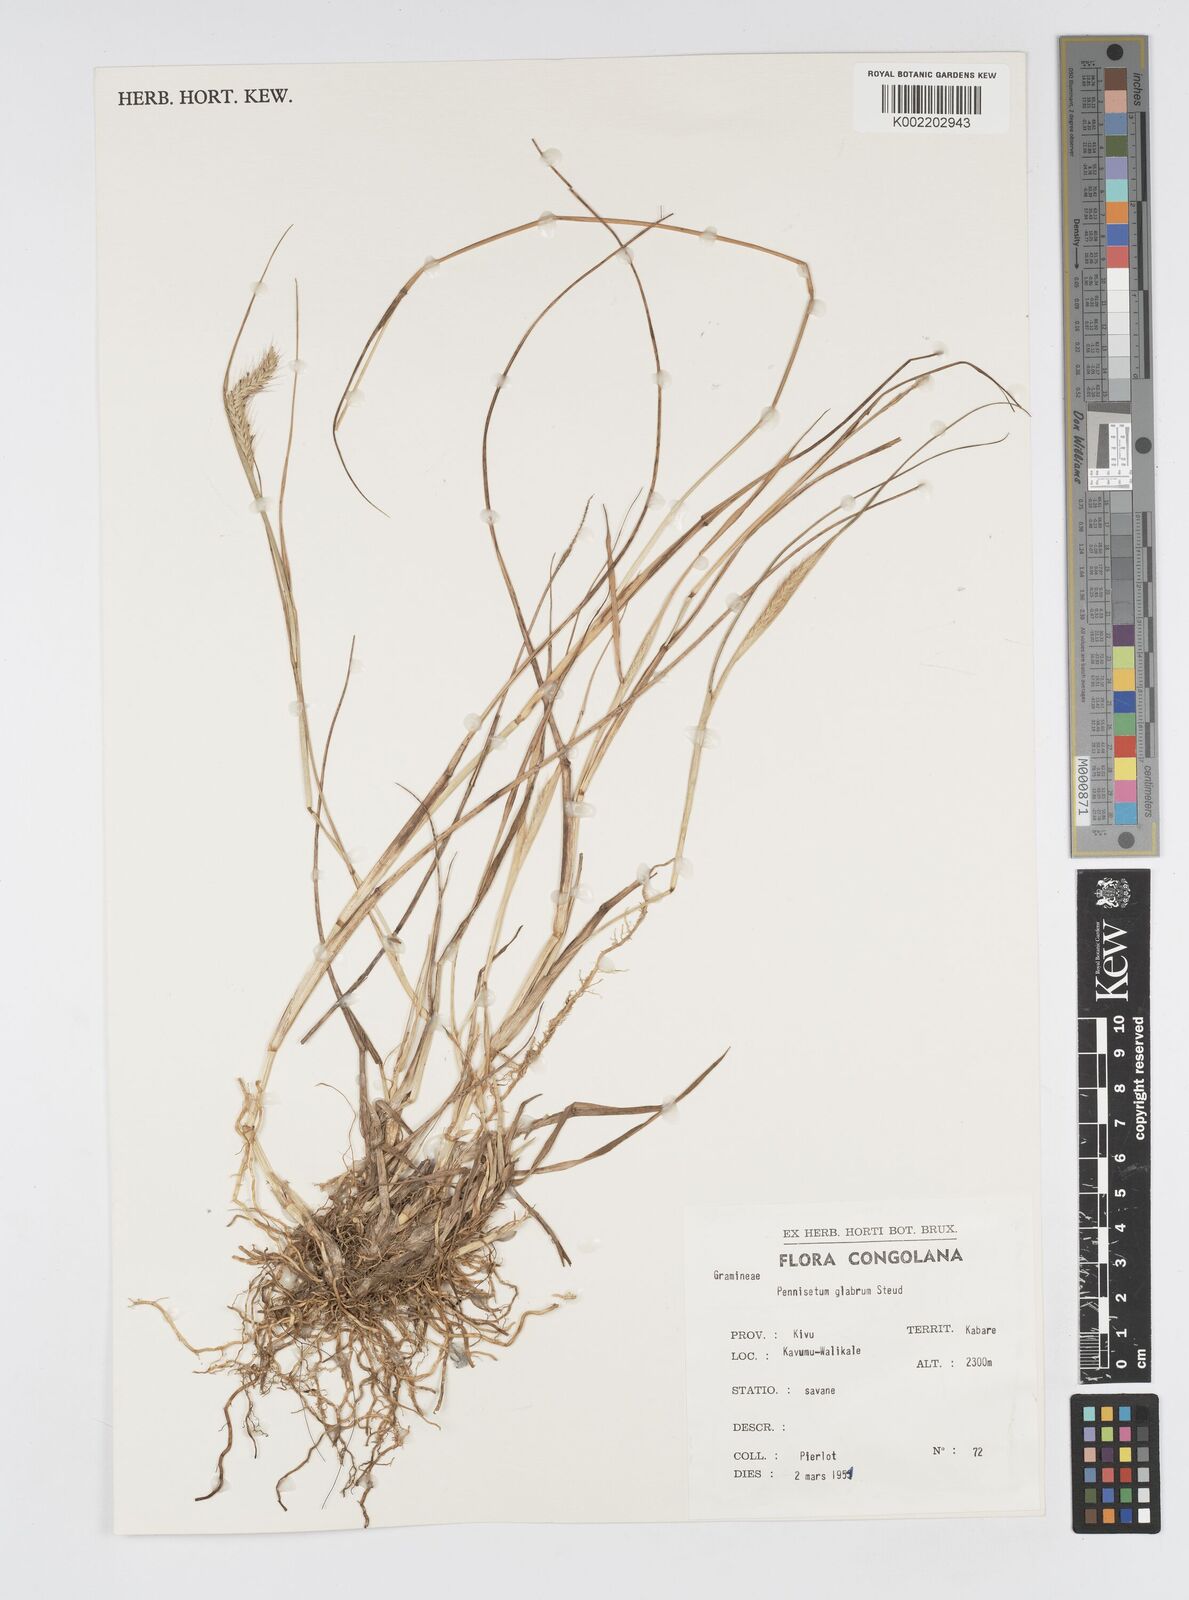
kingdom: Plantae
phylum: Tracheophyta
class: Liliopsida
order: Poales
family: Poaceae
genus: Cenchrus
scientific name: Cenchrus geniculatus
